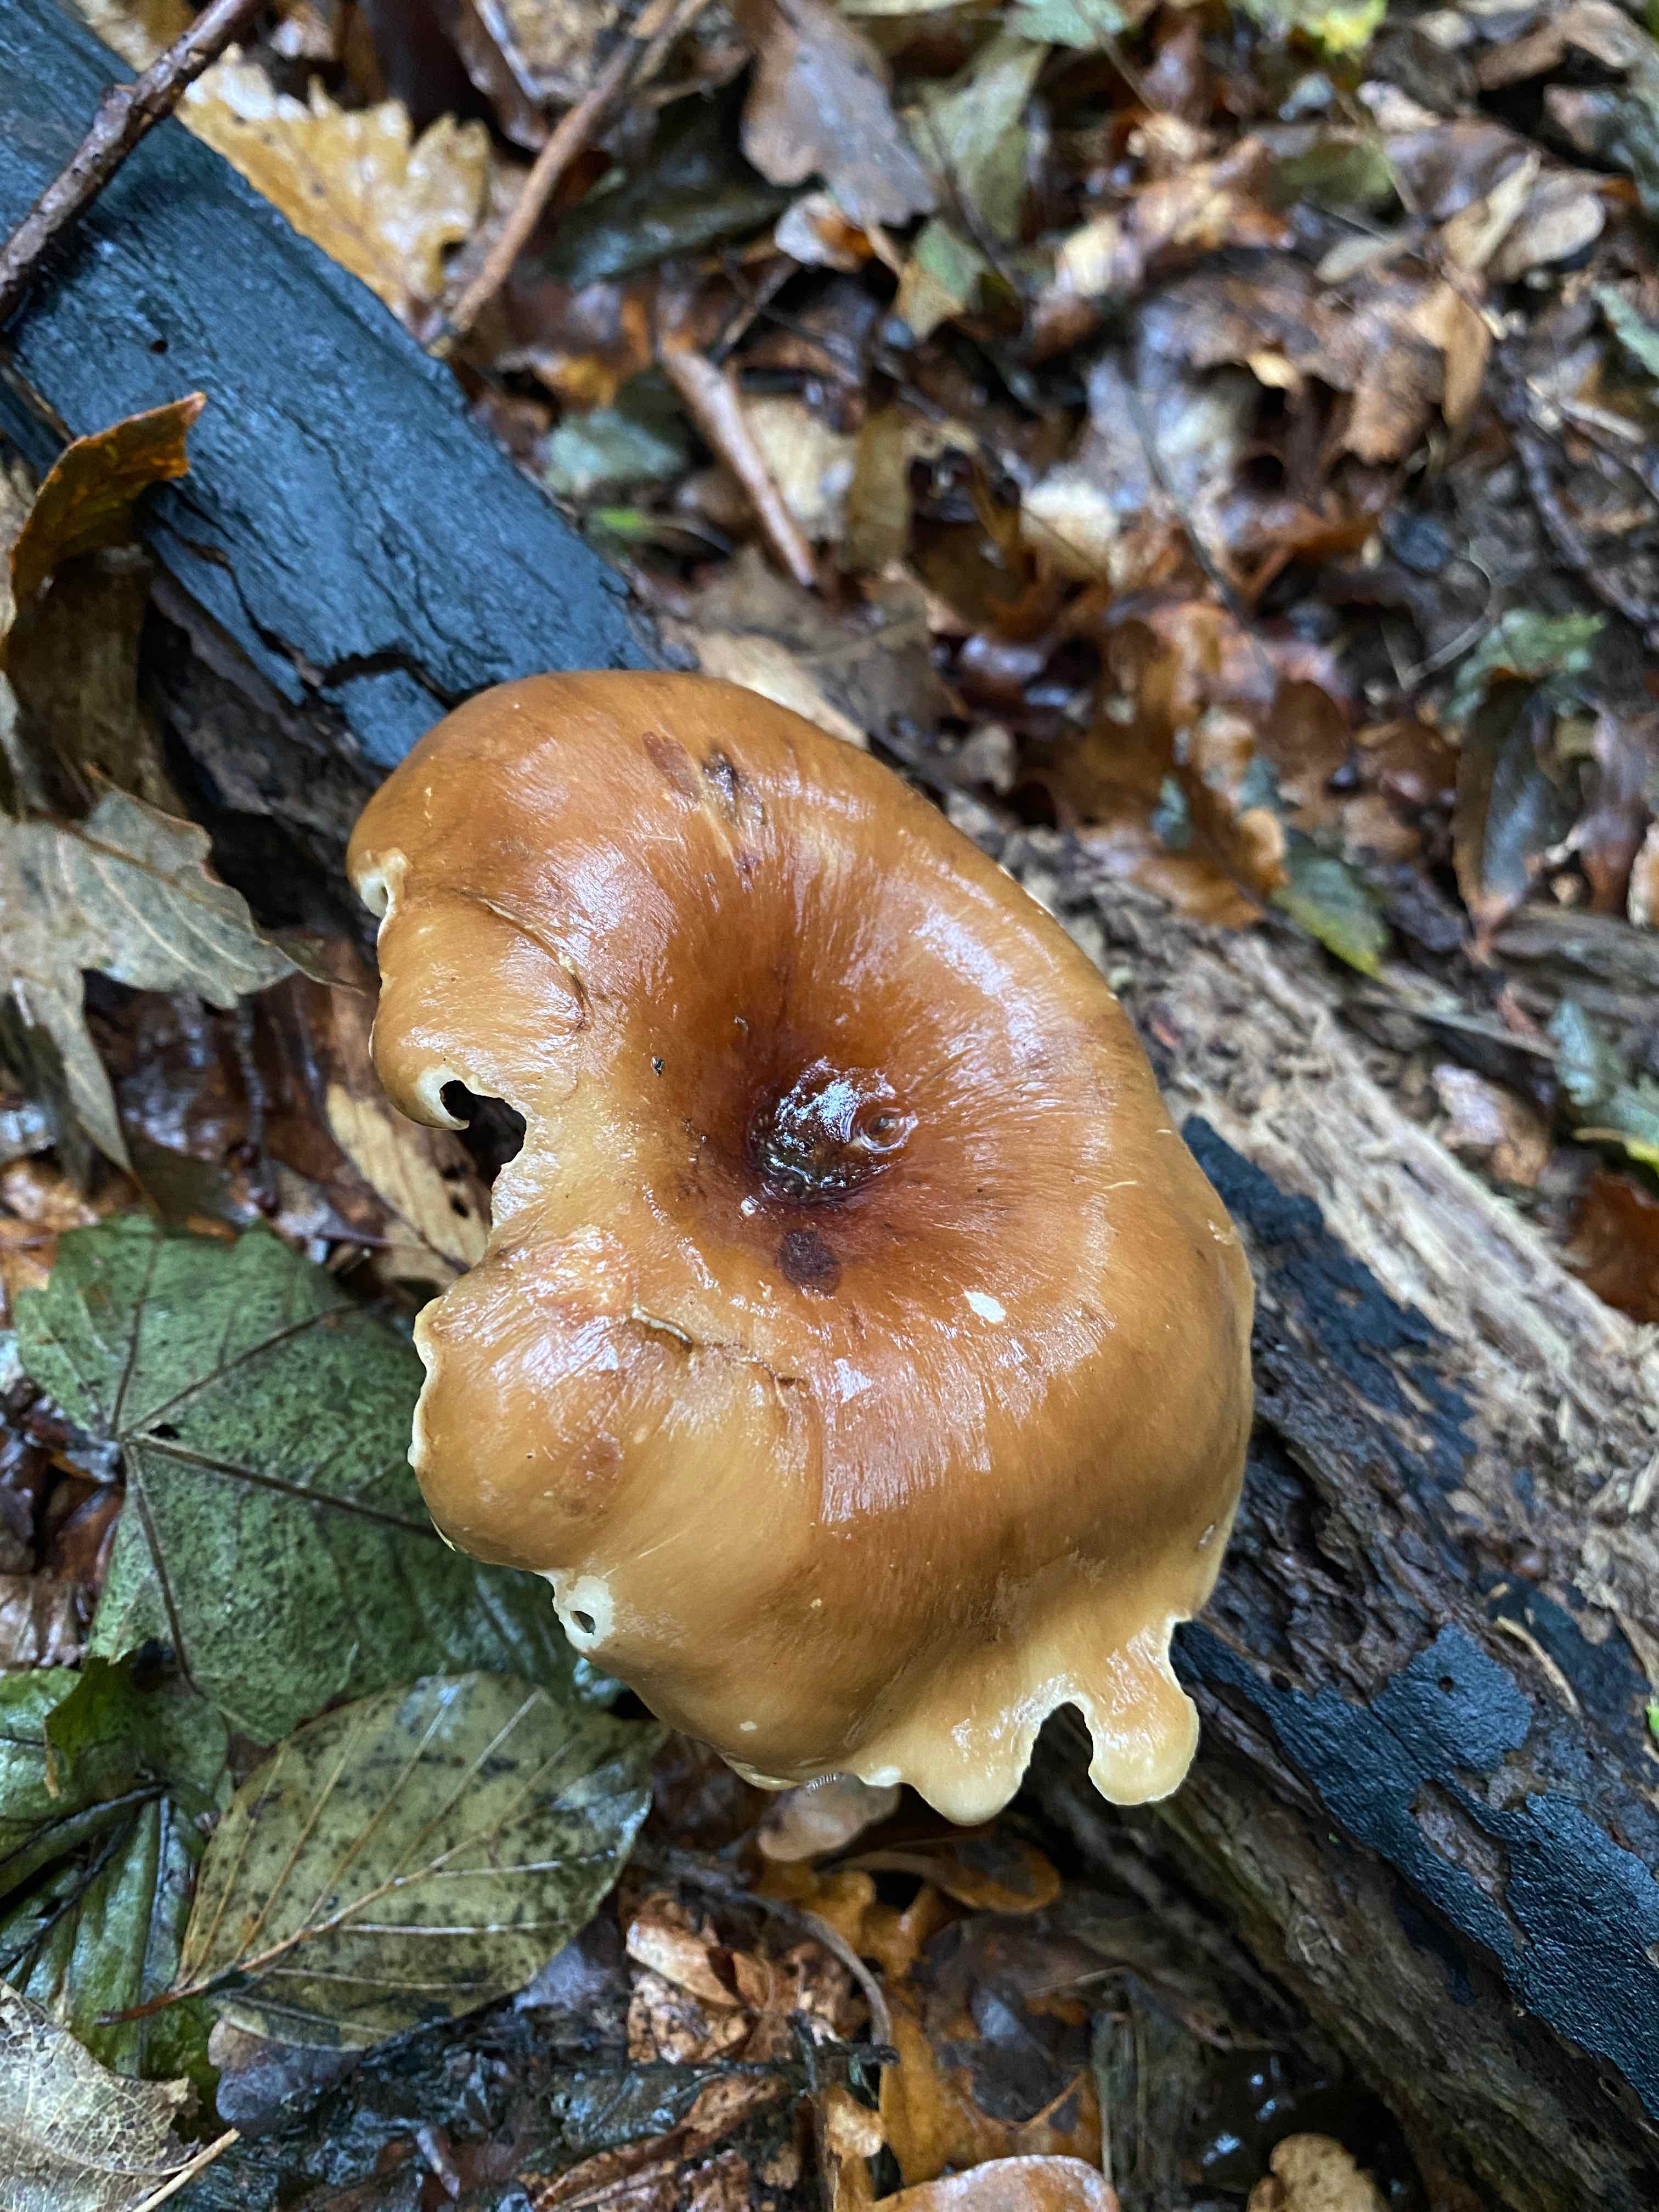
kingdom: Fungi
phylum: Basidiomycota
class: Agaricomycetes
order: Polyporales
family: Polyporaceae
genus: Picipes
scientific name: Picipes badius
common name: kastaniebrun stilkporesvamp
